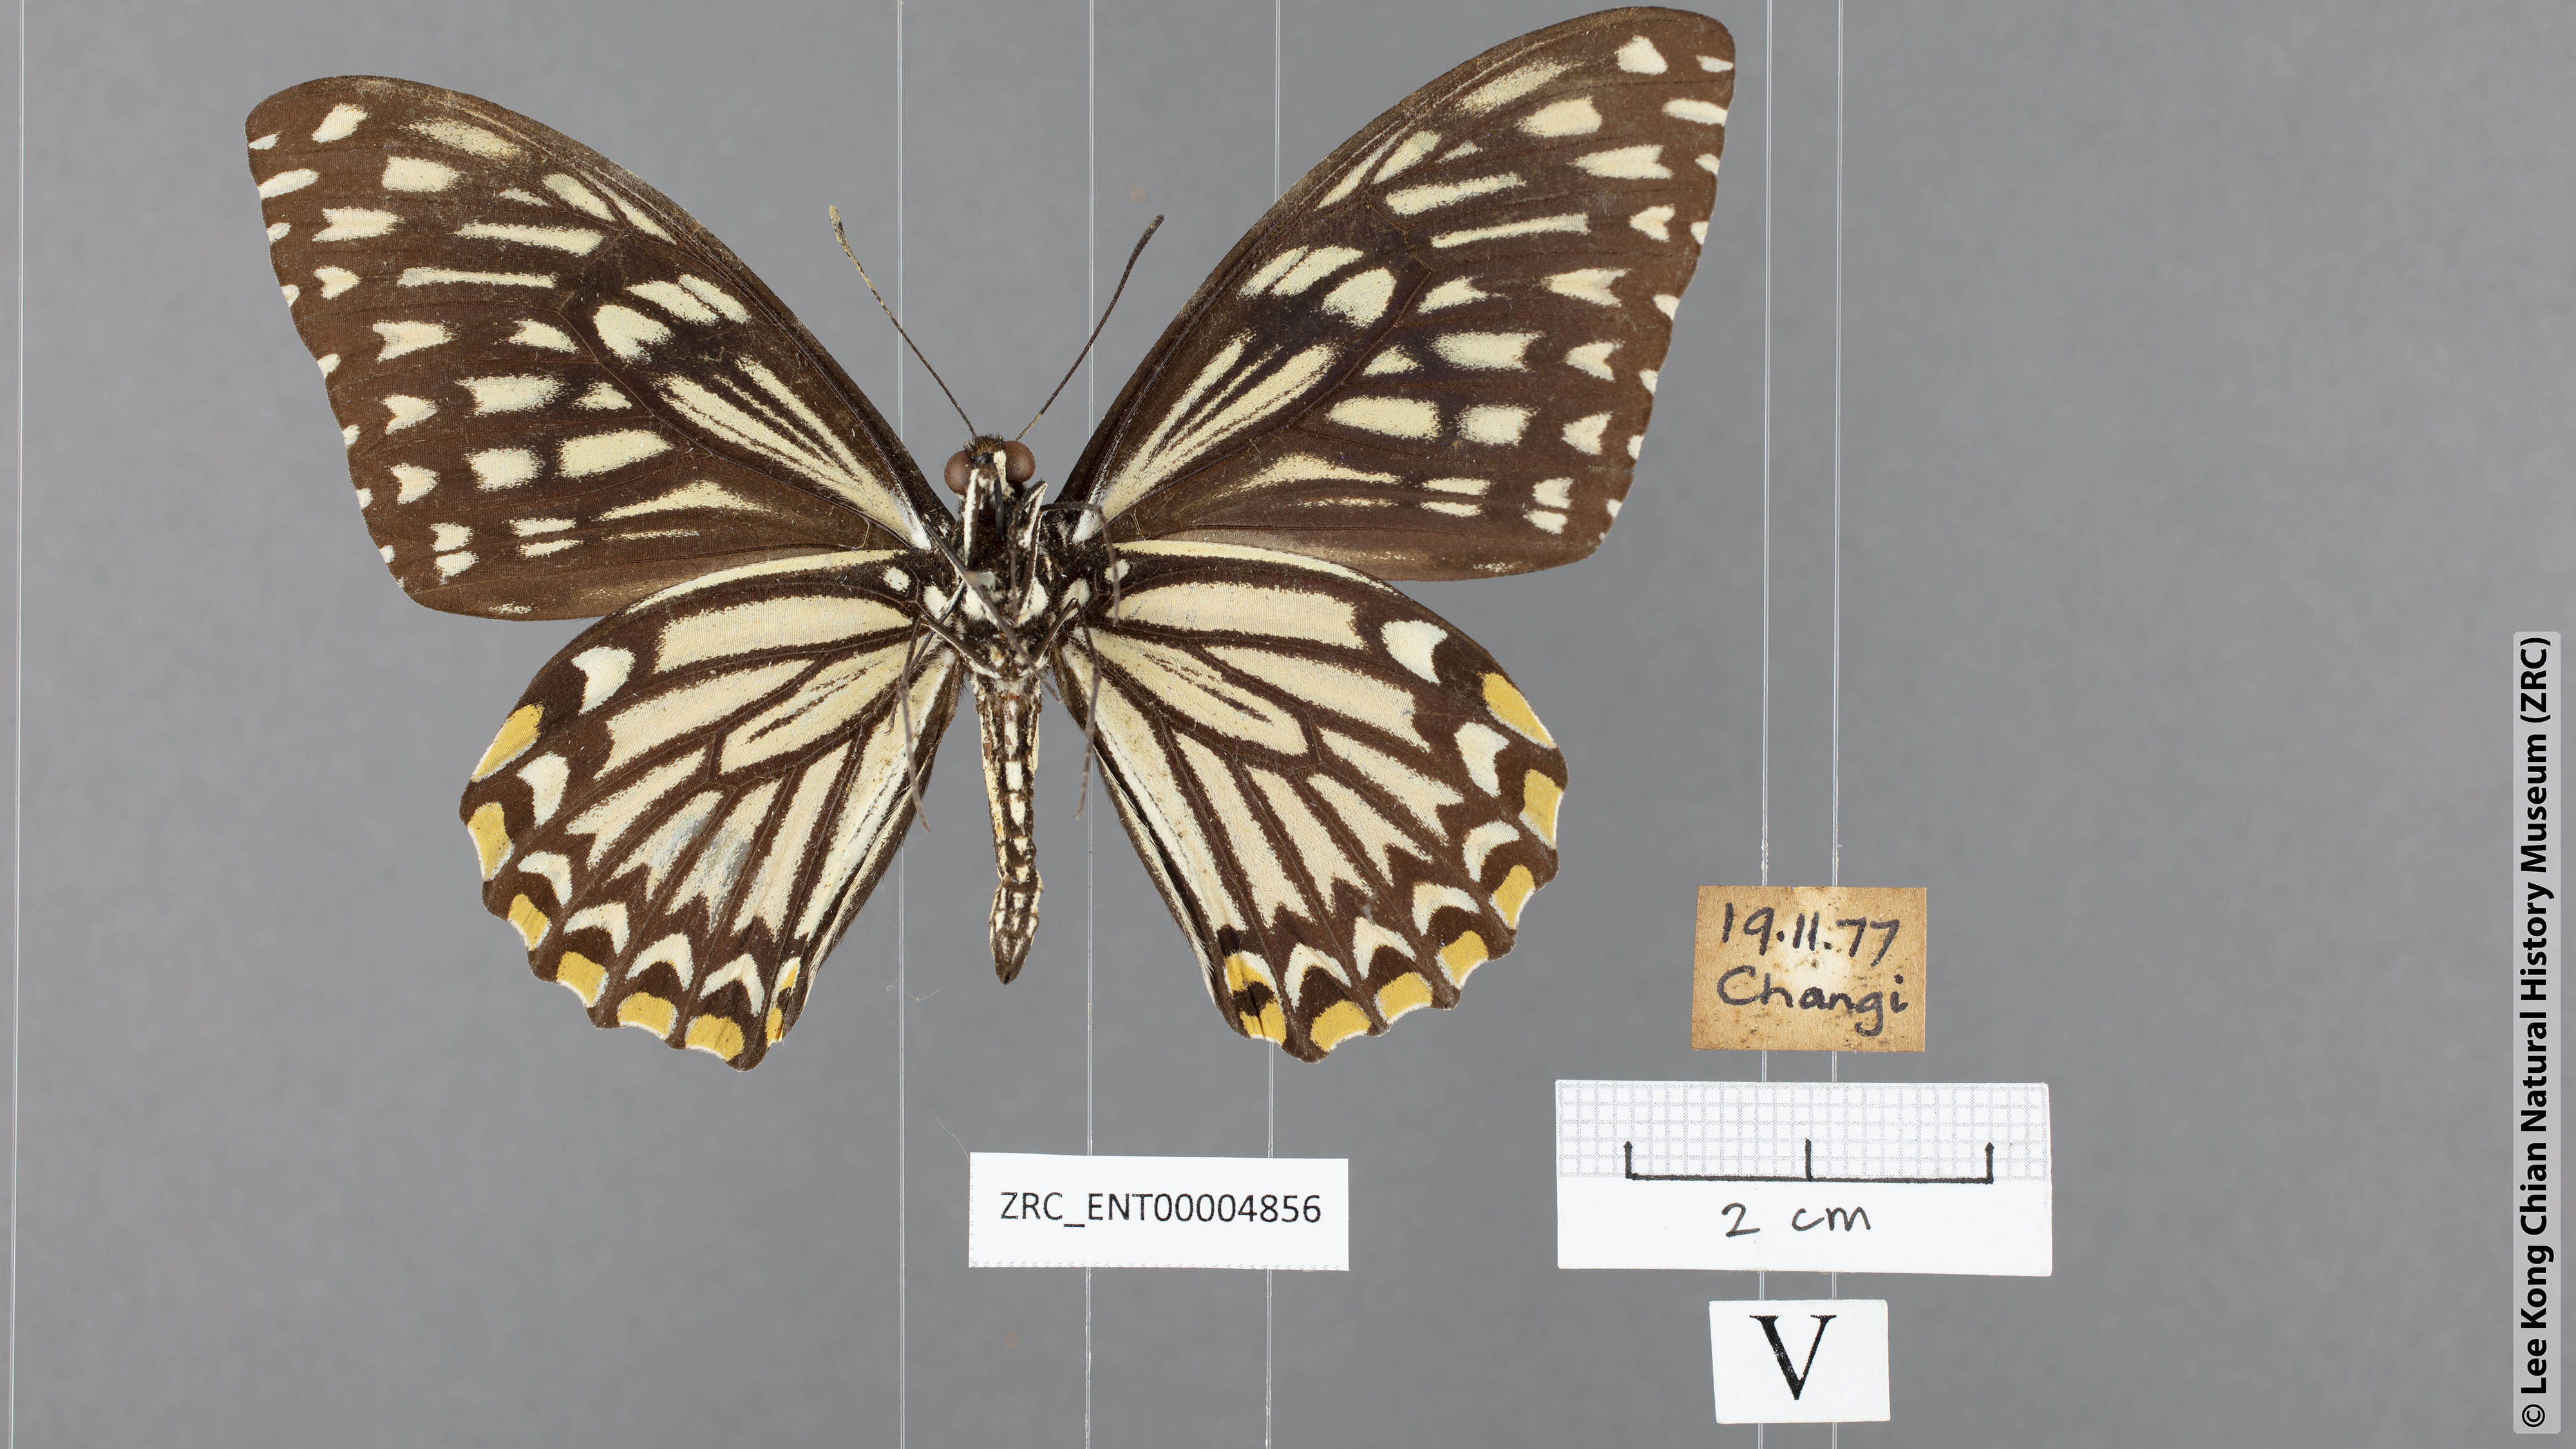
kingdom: Animalia
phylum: Arthropoda
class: Insecta
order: Lepidoptera
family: Papilionidae
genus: Chilasa
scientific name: Chilasa clytia
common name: Common mime
